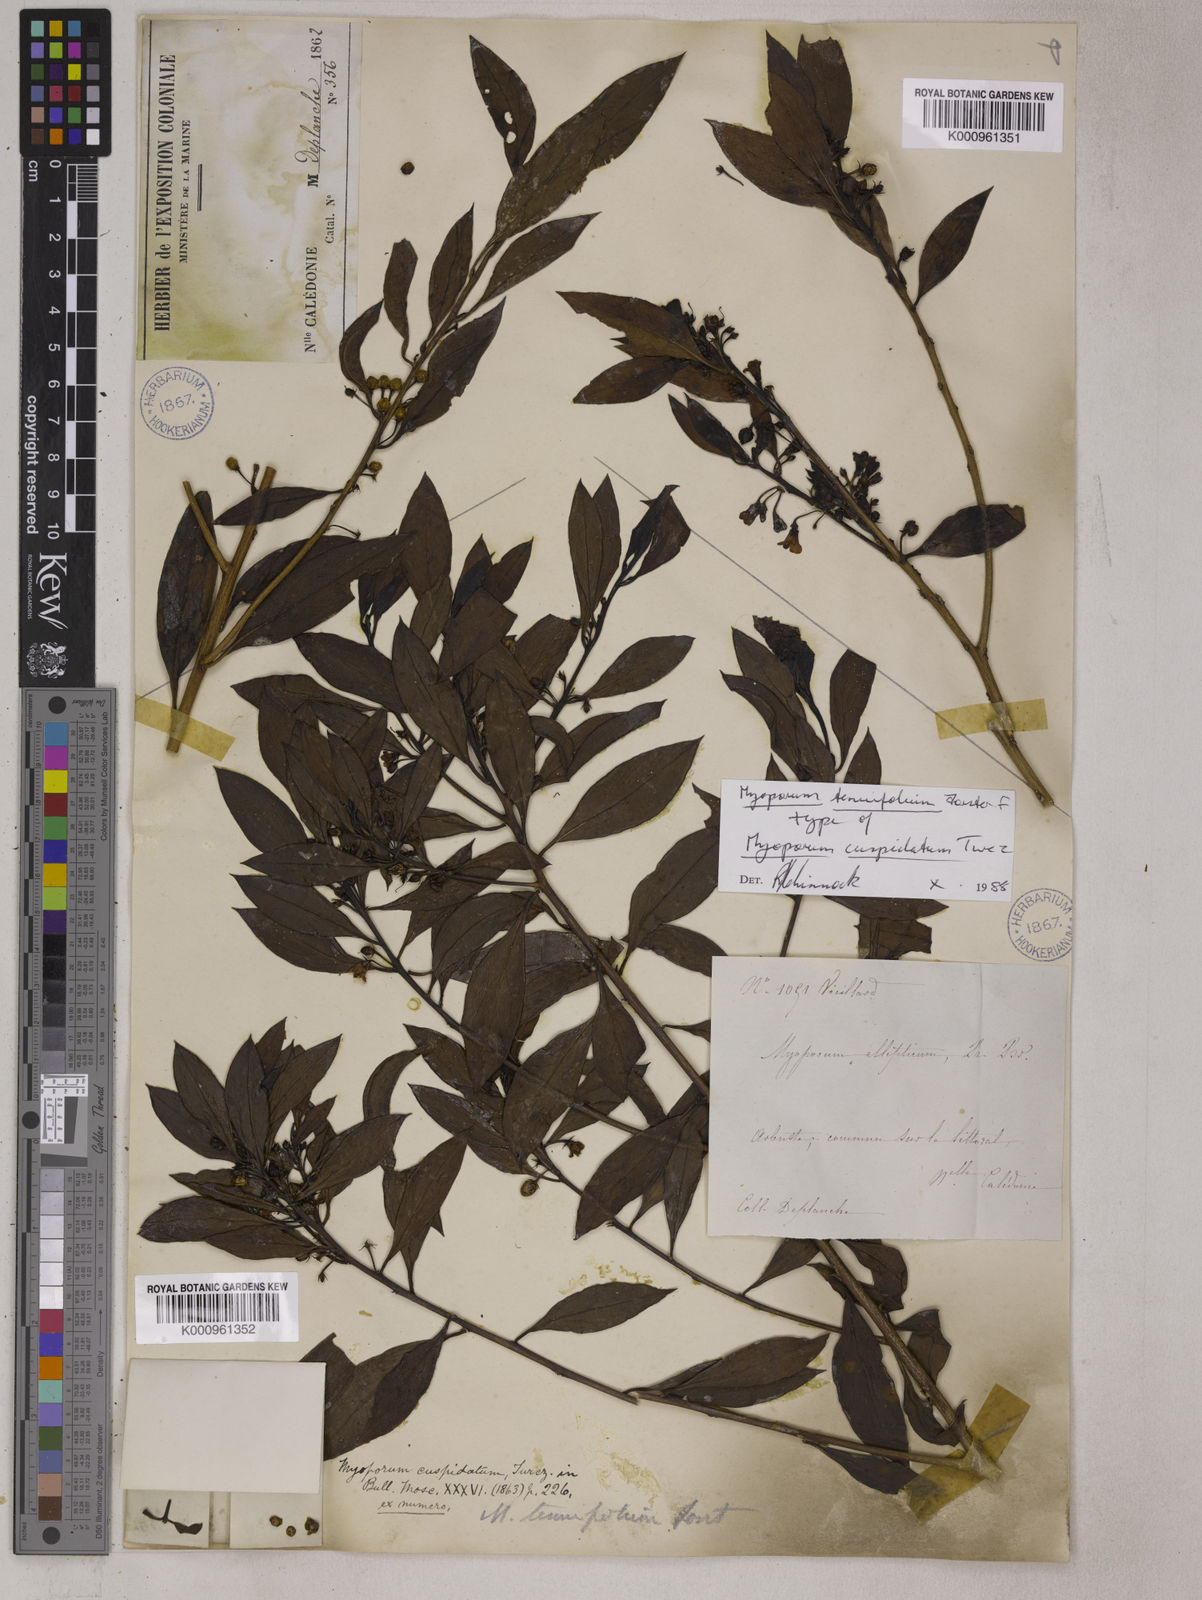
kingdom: Plantae
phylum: Tracheophyta
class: Magnoliopsida
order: Lamiales
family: Scrophulariaceae
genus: Myoporum
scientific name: Myoporum tenuifolium
